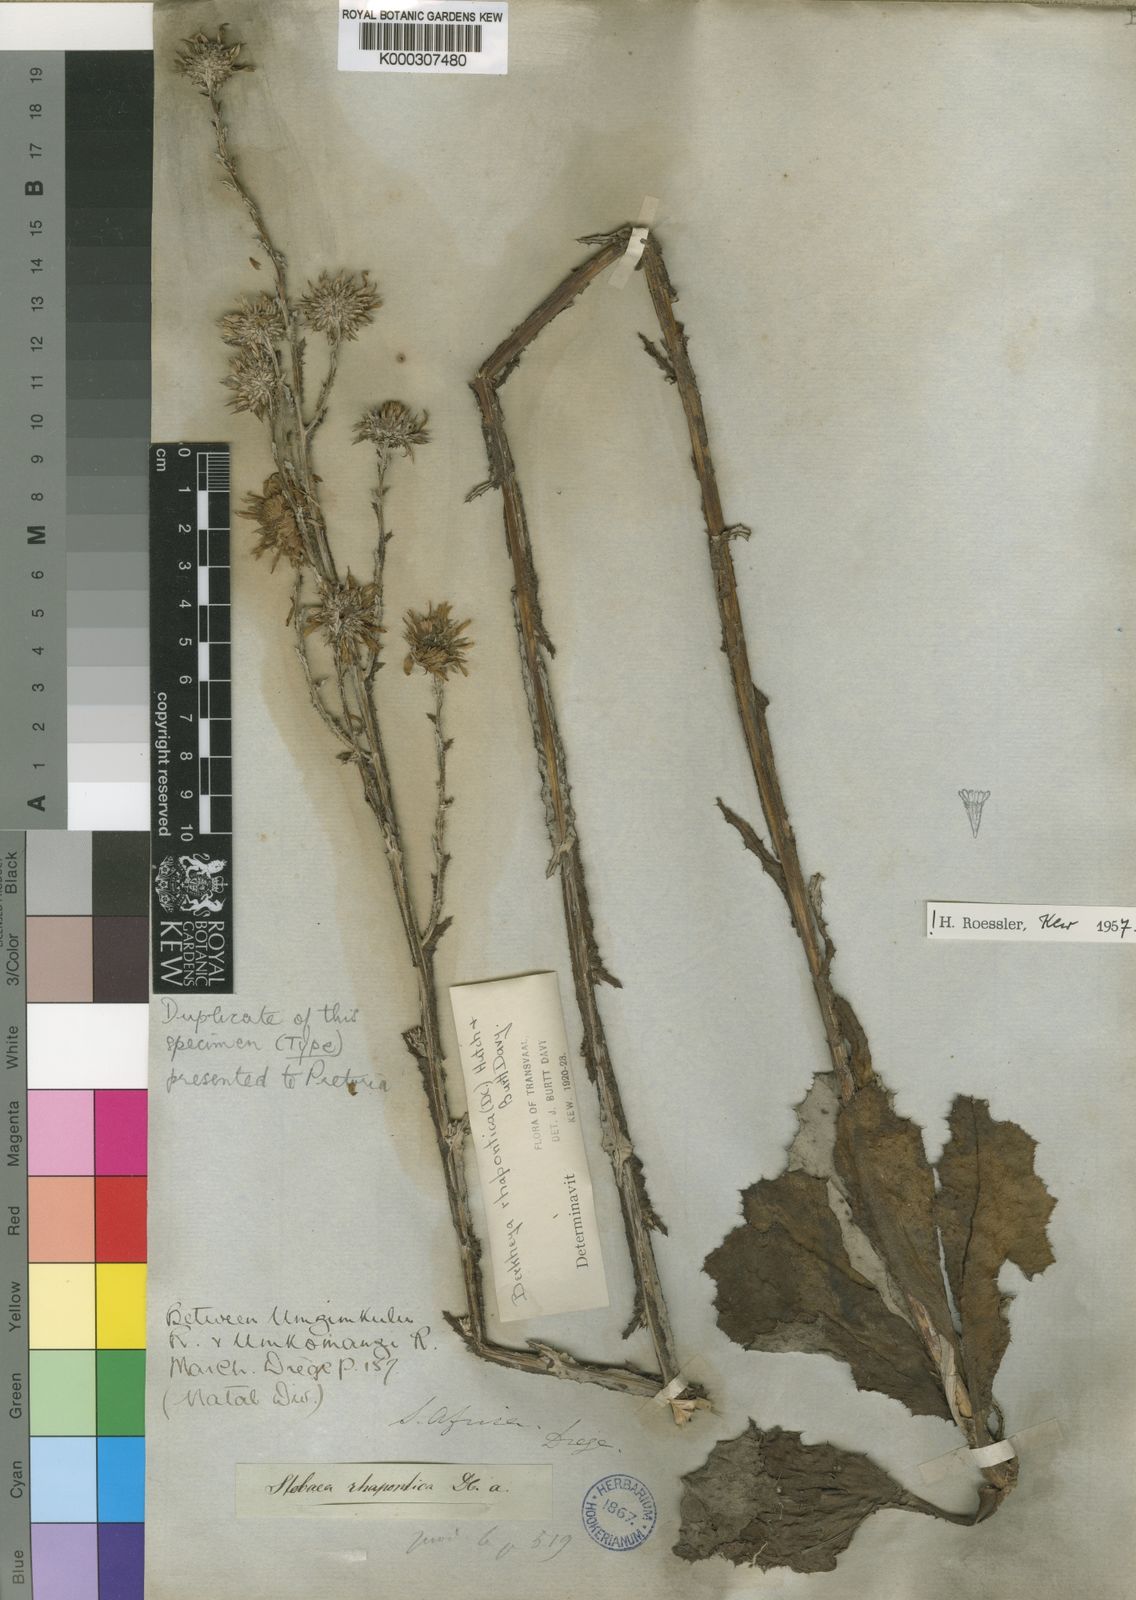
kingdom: Plantae
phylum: Tracheophyta
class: Magnoliopsida
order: Asterales
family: Asteraceae
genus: Berkheya
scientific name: Berkheya rhapontica
